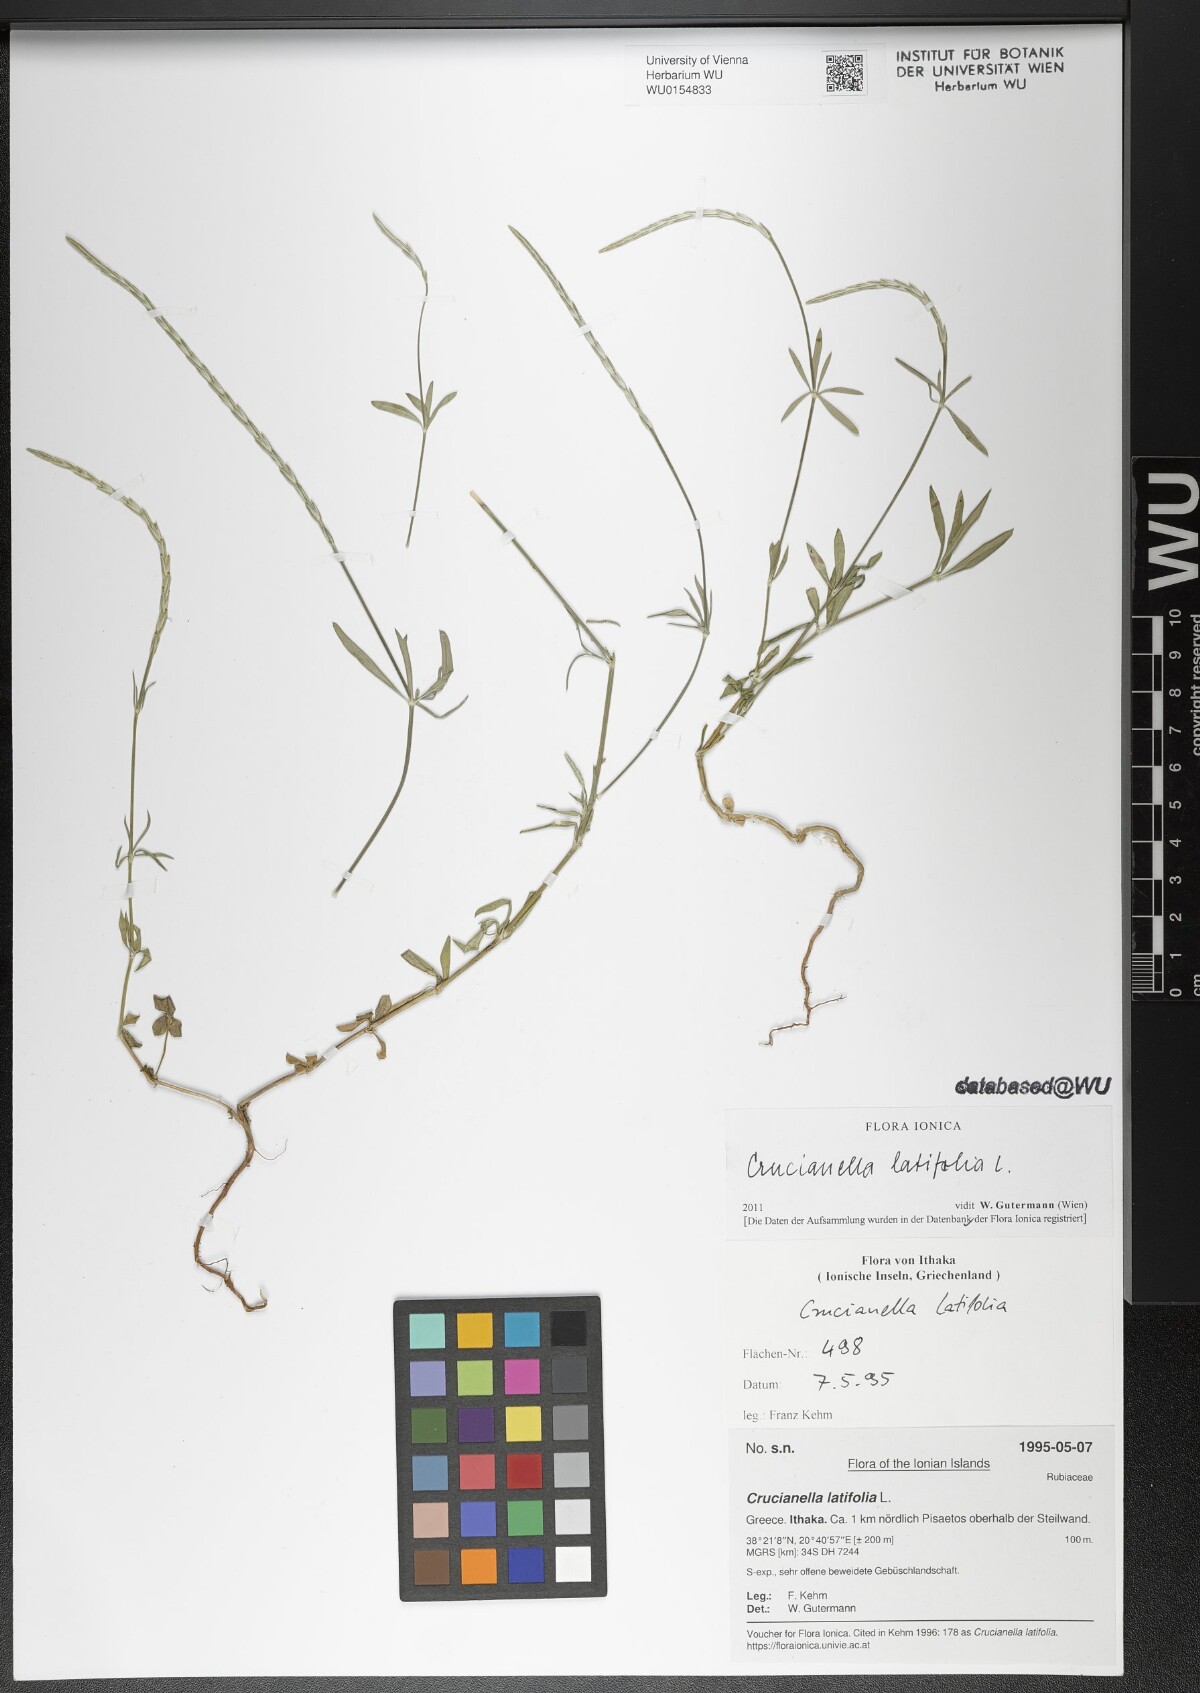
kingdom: Plantae
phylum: Tracheophyta
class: Magnoliopsida
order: Gentianales
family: Rubiaceae
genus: Crucianella
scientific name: Crucianella latifolia
